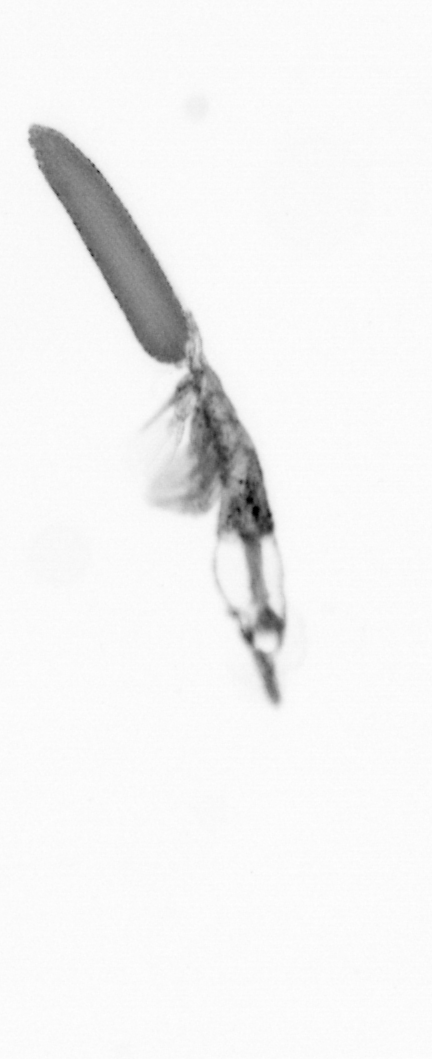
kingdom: Animalia
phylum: Arthropoda
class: Copepoda
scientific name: Copepoda
